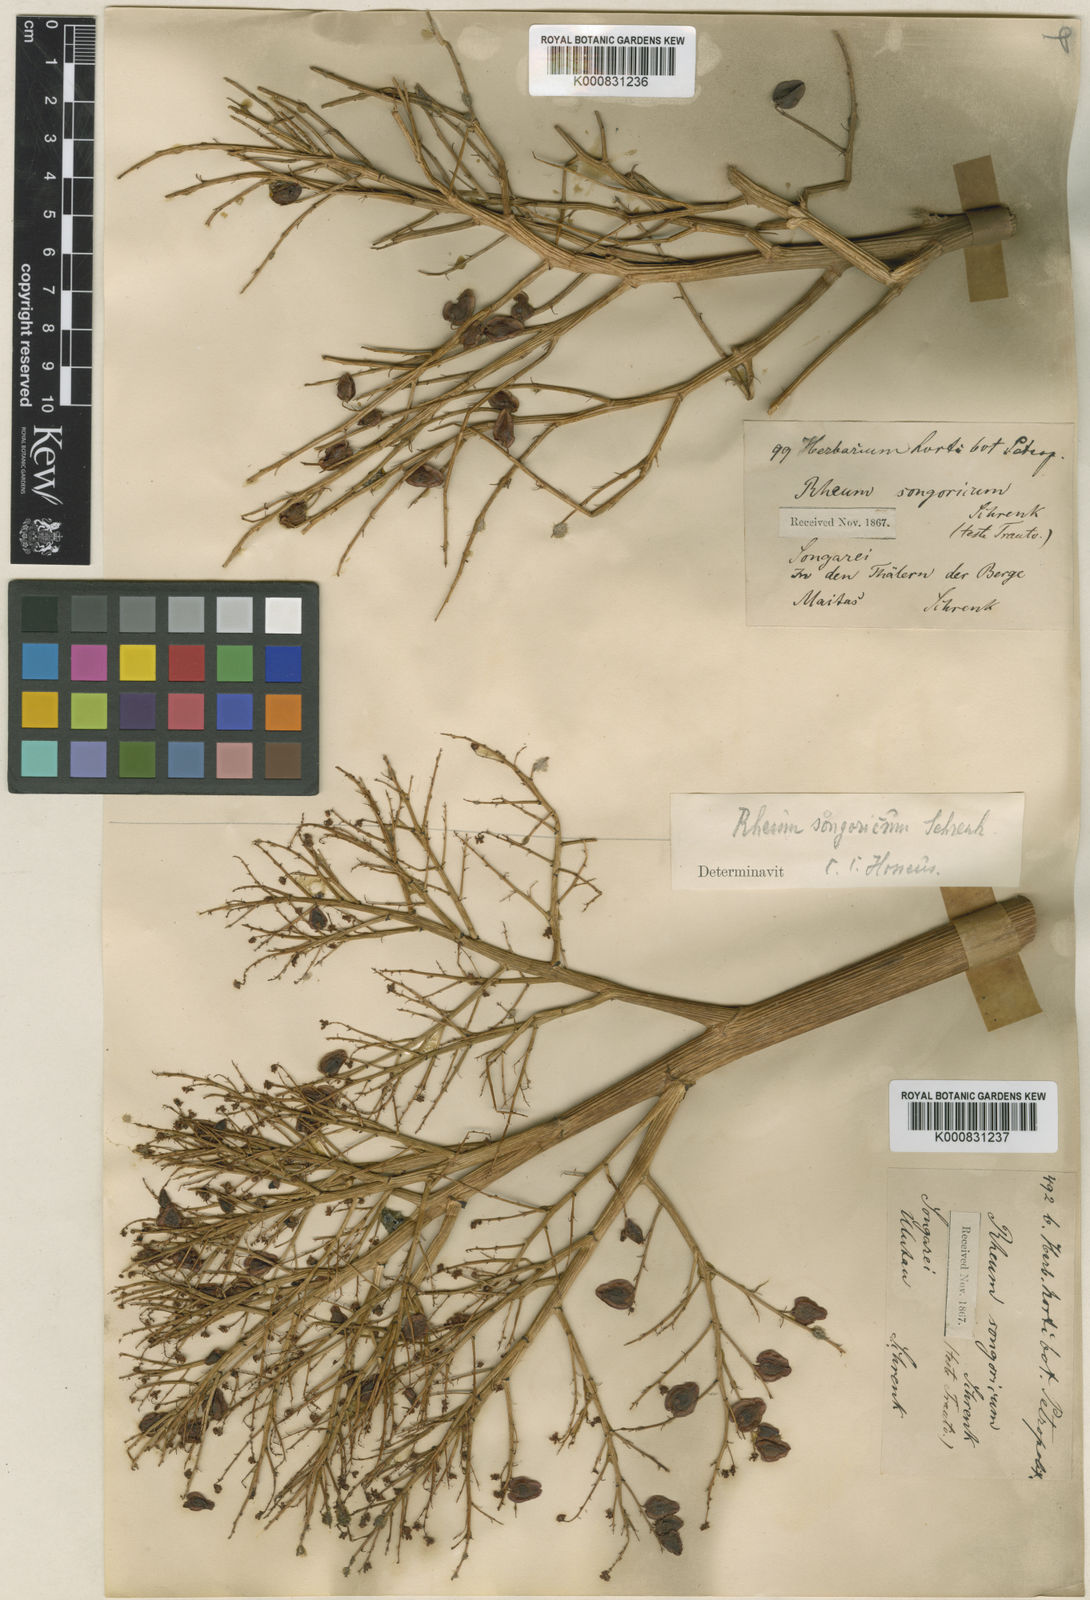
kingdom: Plantae
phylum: Tracheophyta
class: Magnoliopsida
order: Caryophyllales
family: Polygonaceae
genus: Rheum
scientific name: Rheum tataricum
